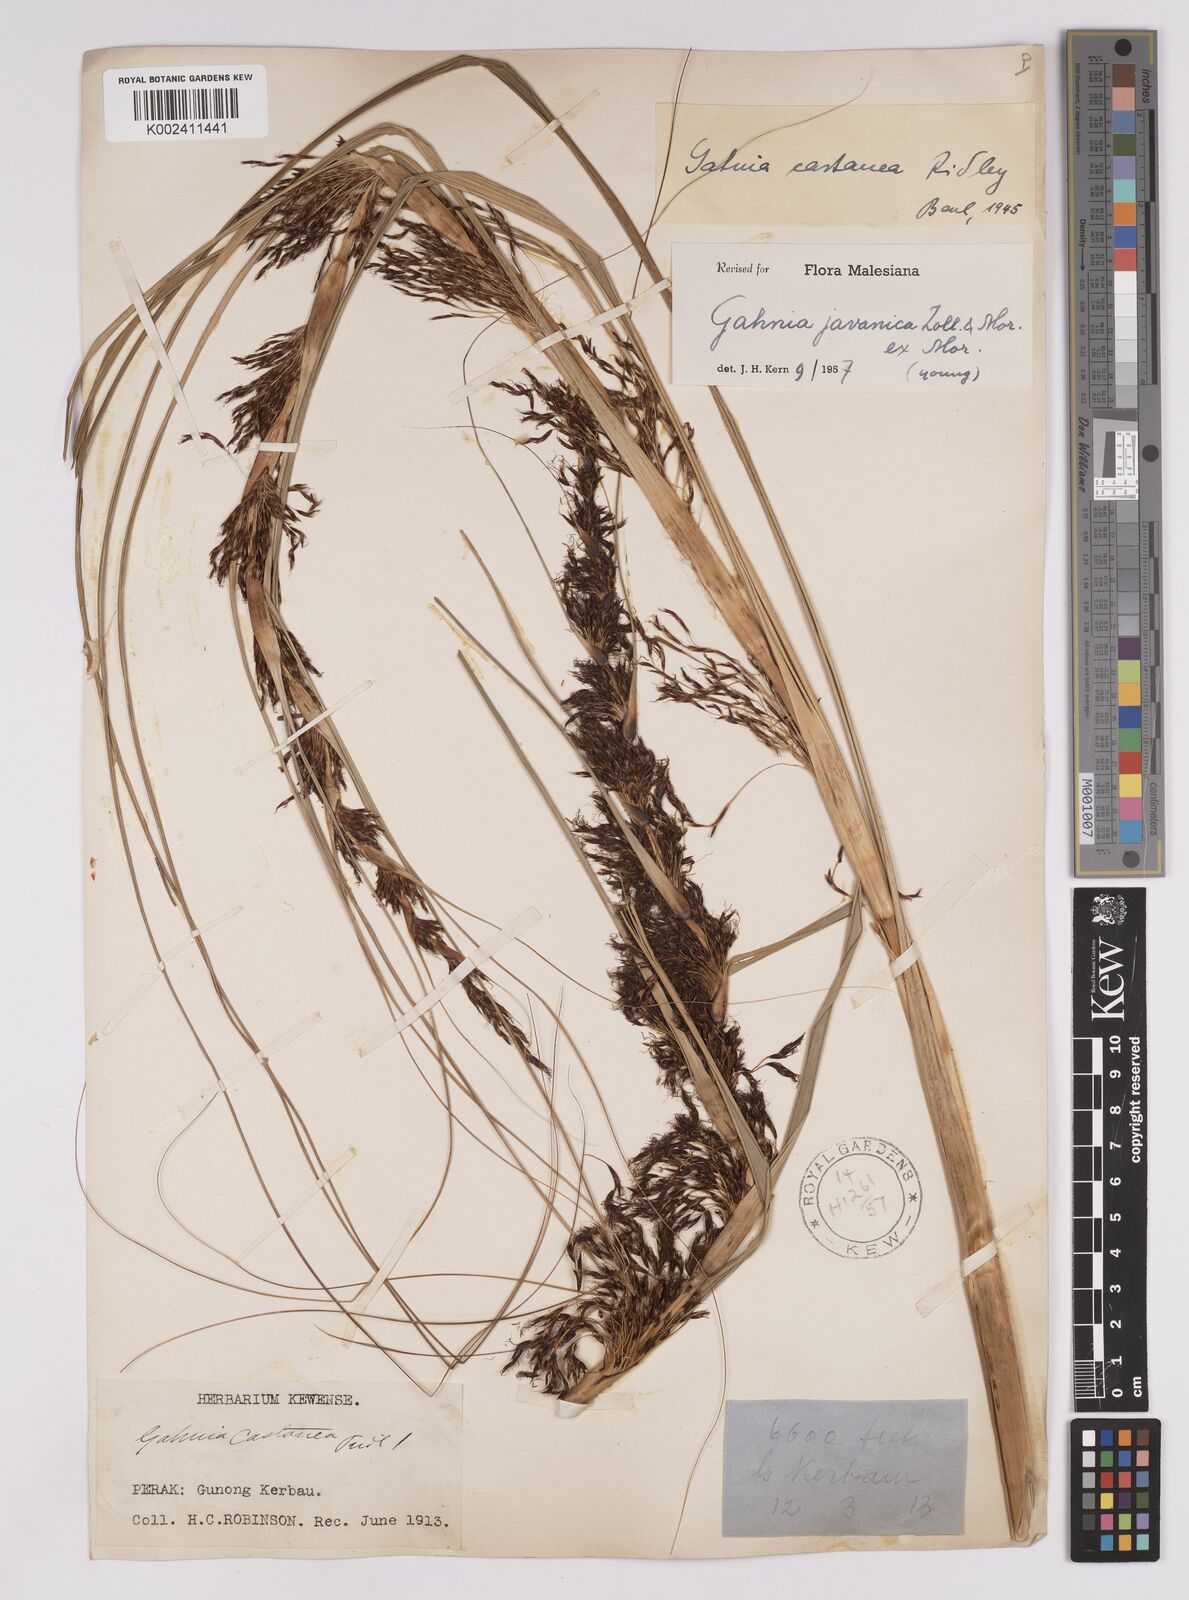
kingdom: Plantae
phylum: Tracheophyta
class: Liliopsida
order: Poales
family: Cyperaceae
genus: Gahnia
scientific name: Gahnia javanica
